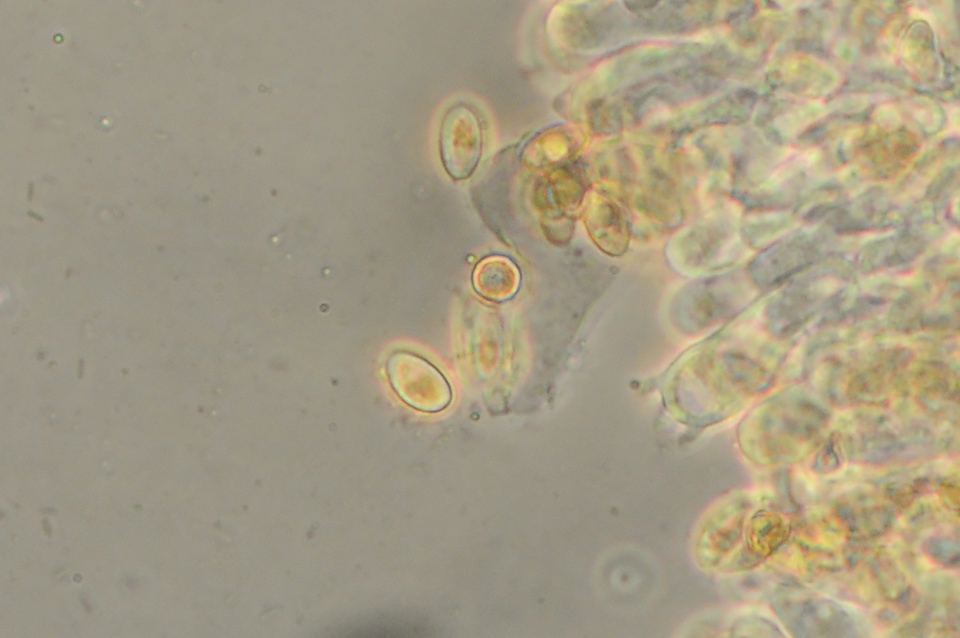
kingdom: Fungi
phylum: Basidiomycota
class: Agaricomycetes
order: Agaricales
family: Crepidotaceae
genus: Crepidotus
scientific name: Crepidotus caspari
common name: Lundells muslingesvamp
